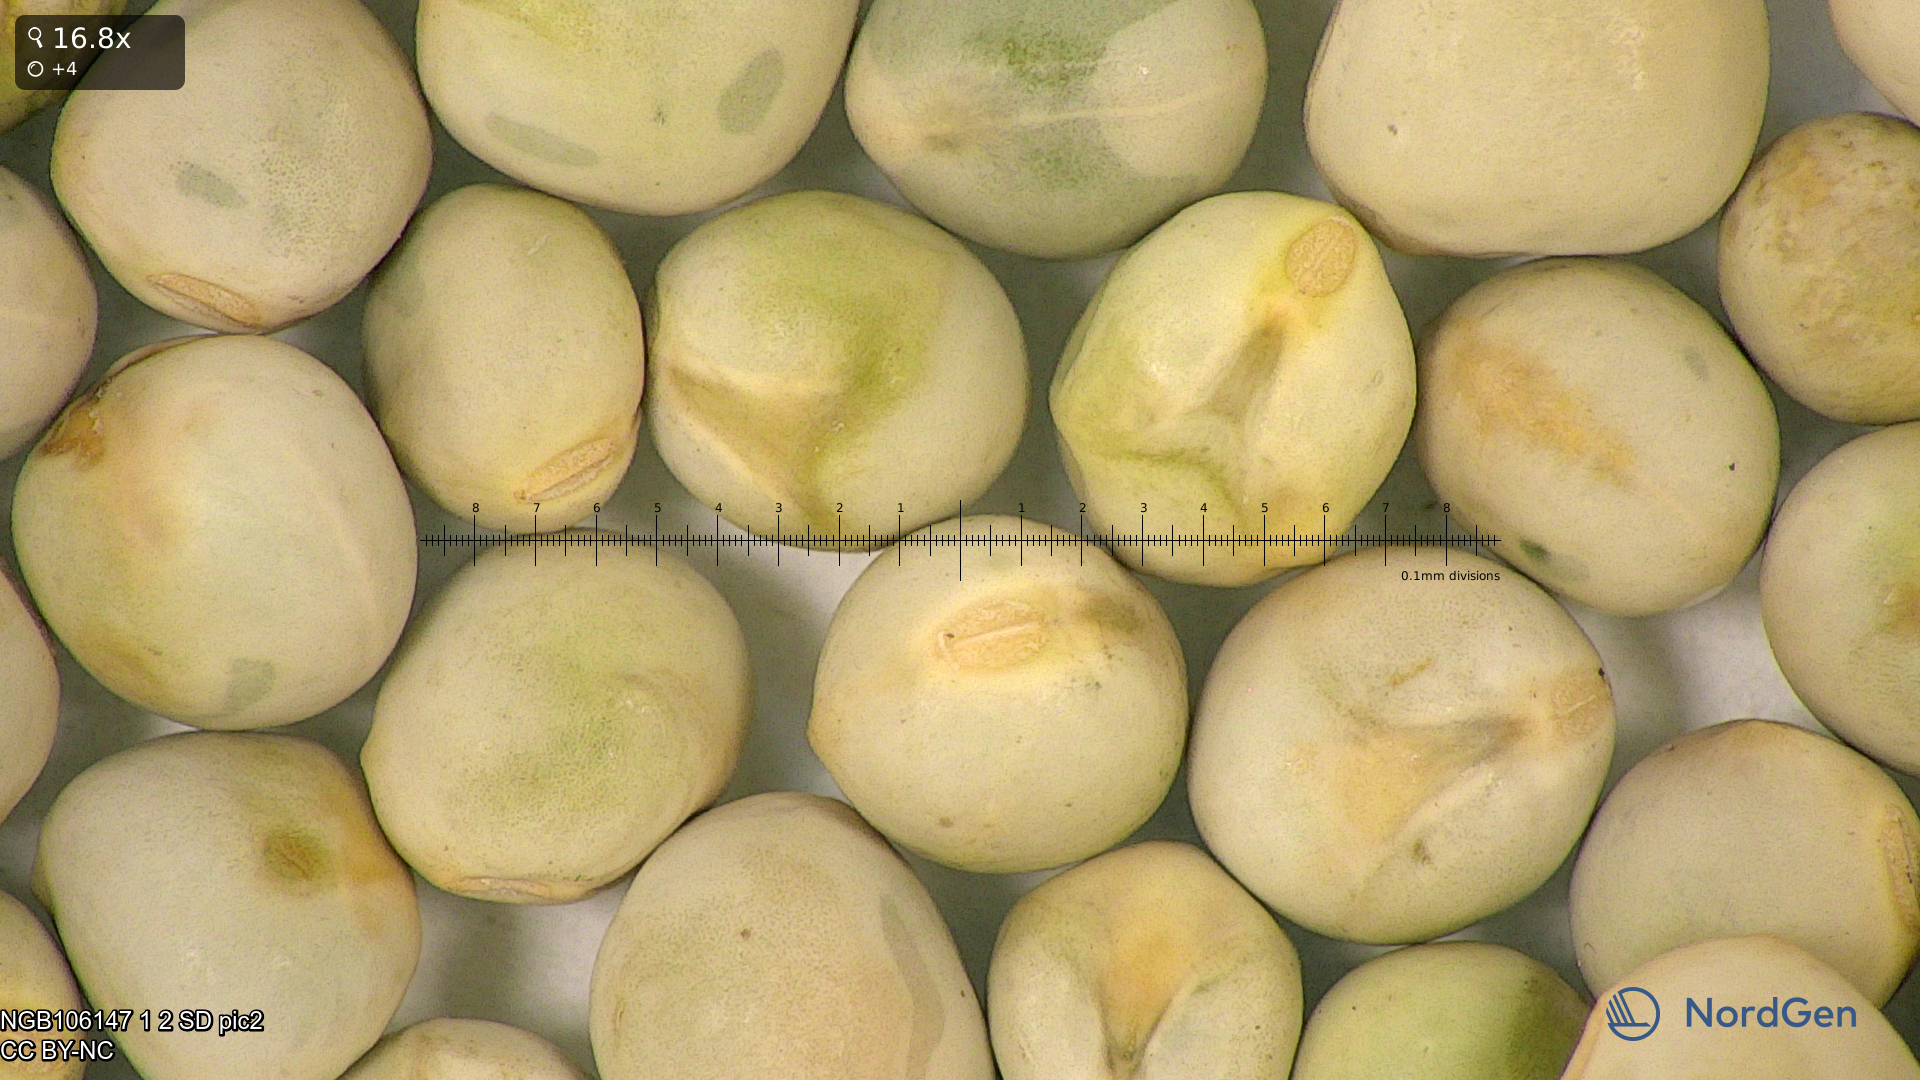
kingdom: Plantae
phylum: Tracheophyta
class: Magnoliopsida
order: Fabales
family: Fabaceae
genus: Lathyrus
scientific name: Lathyrus oleraceus
